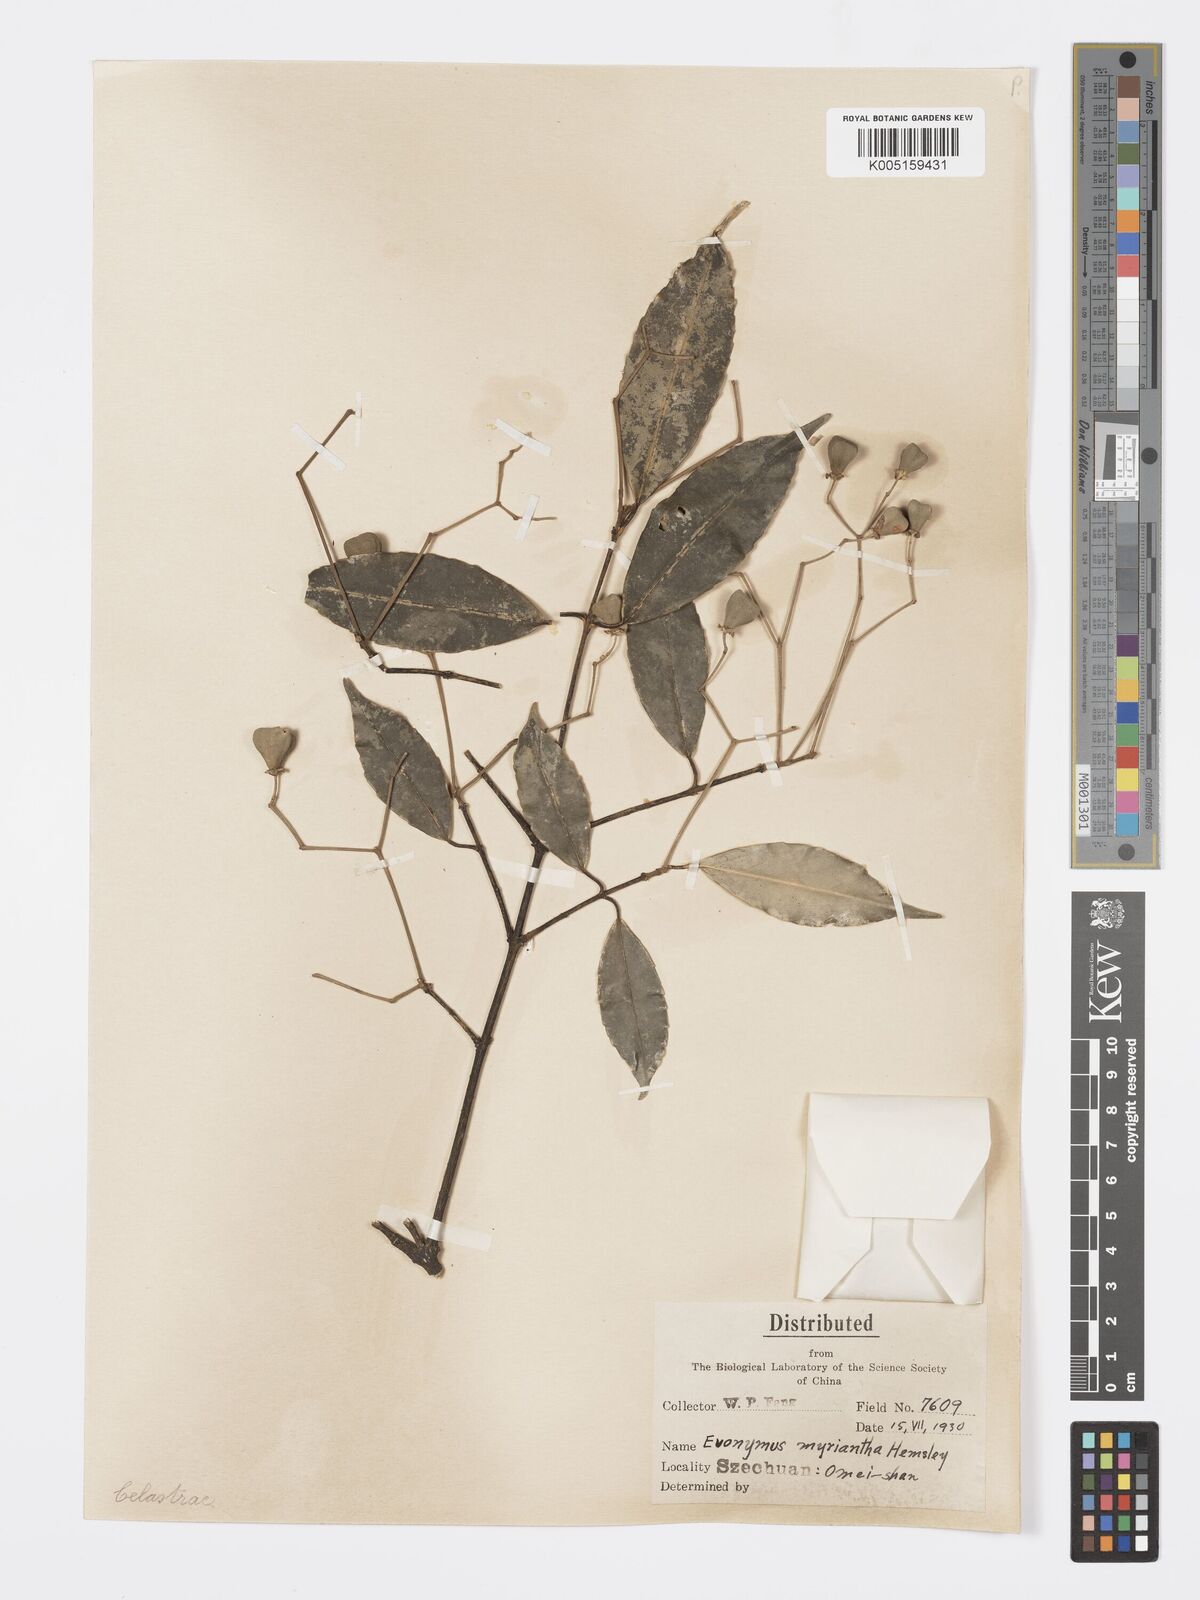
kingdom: Plantae
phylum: Tracheophyta
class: Magnoliopsida
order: Celastrales
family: Celastraceae
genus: Euonymus
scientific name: Euonymus myrianthus
